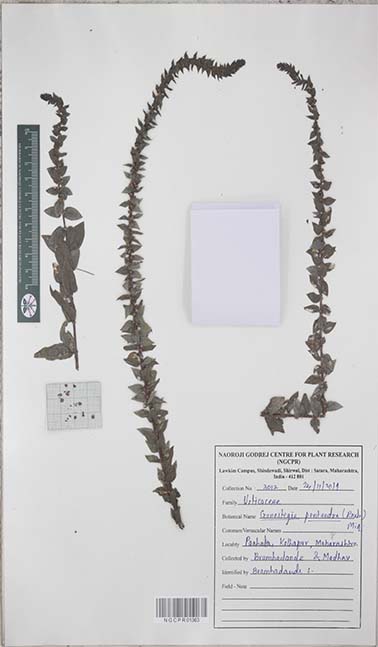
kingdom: Plantae
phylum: Tracheophyta
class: Magnoliopsida
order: Rosales
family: Urticaceae
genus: Gonostegia
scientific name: Gonostegia pentandra
